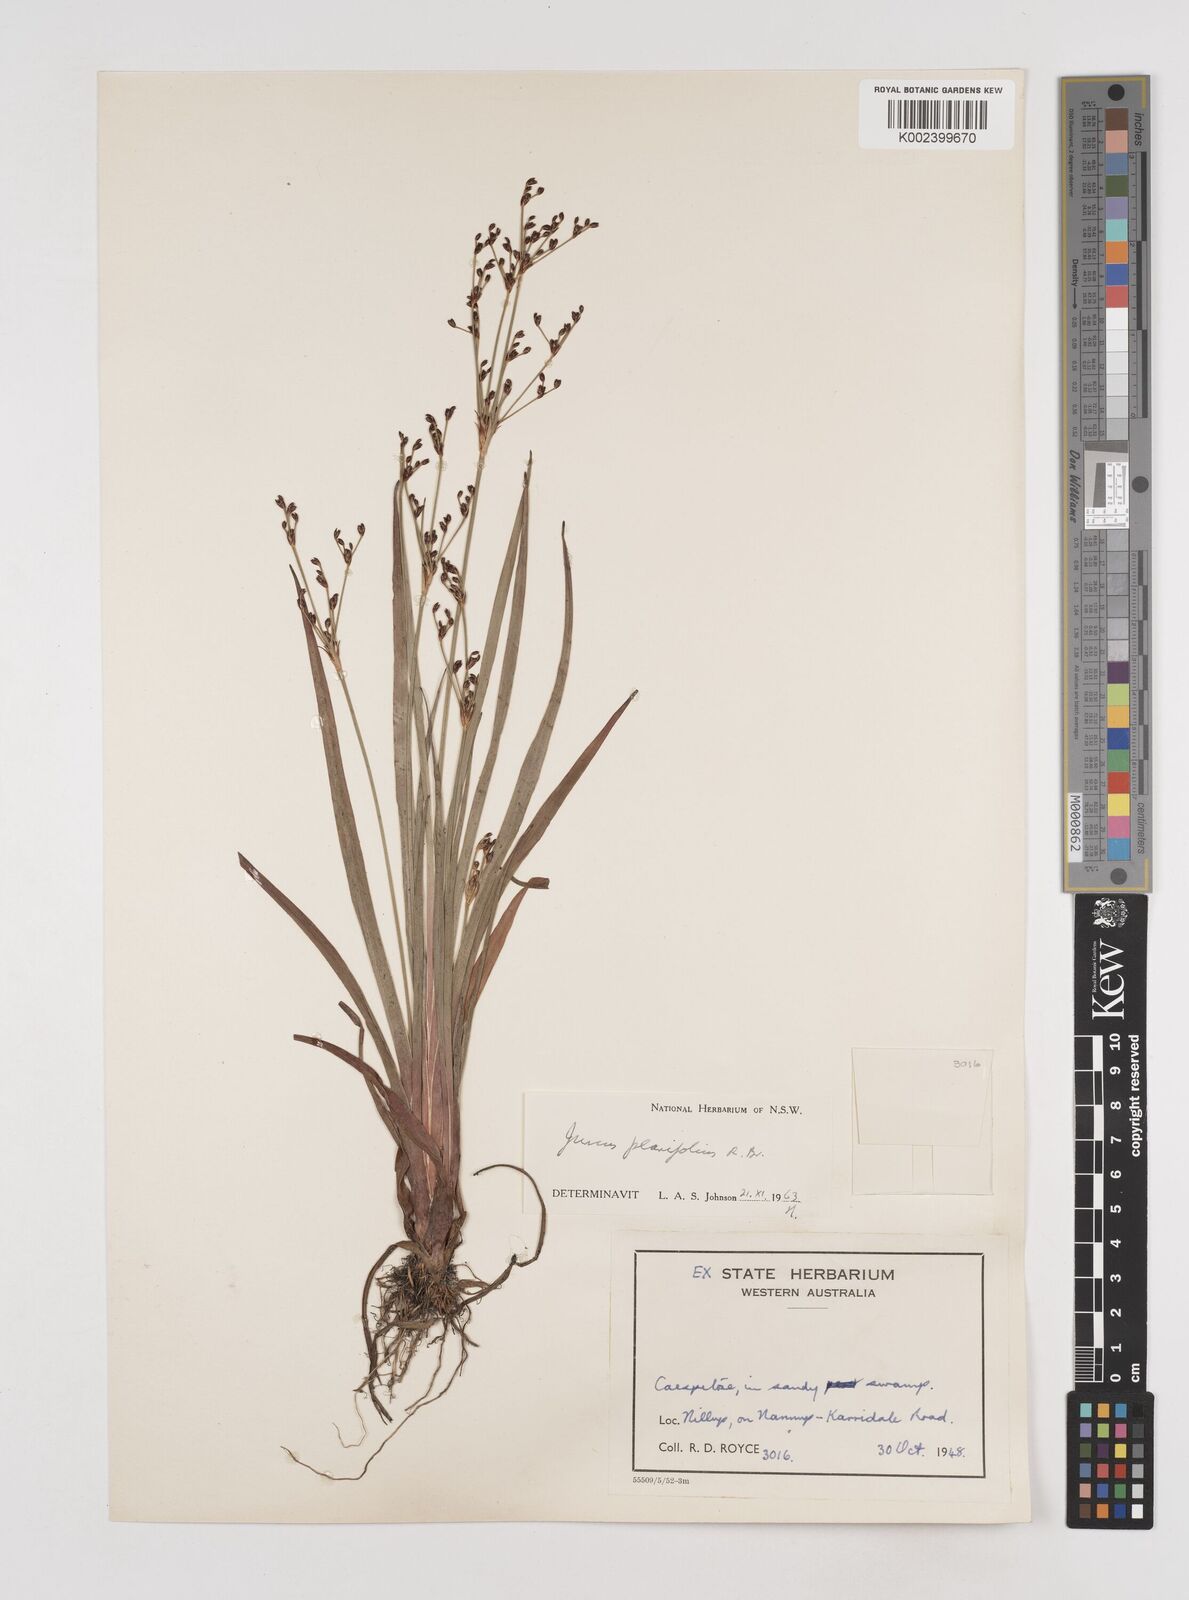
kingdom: Plantae
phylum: Tracheophyta
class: Liliopsida
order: Poales
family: Juncaceae
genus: Juncus
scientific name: Juncus planifolius
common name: Broadleaf rush
